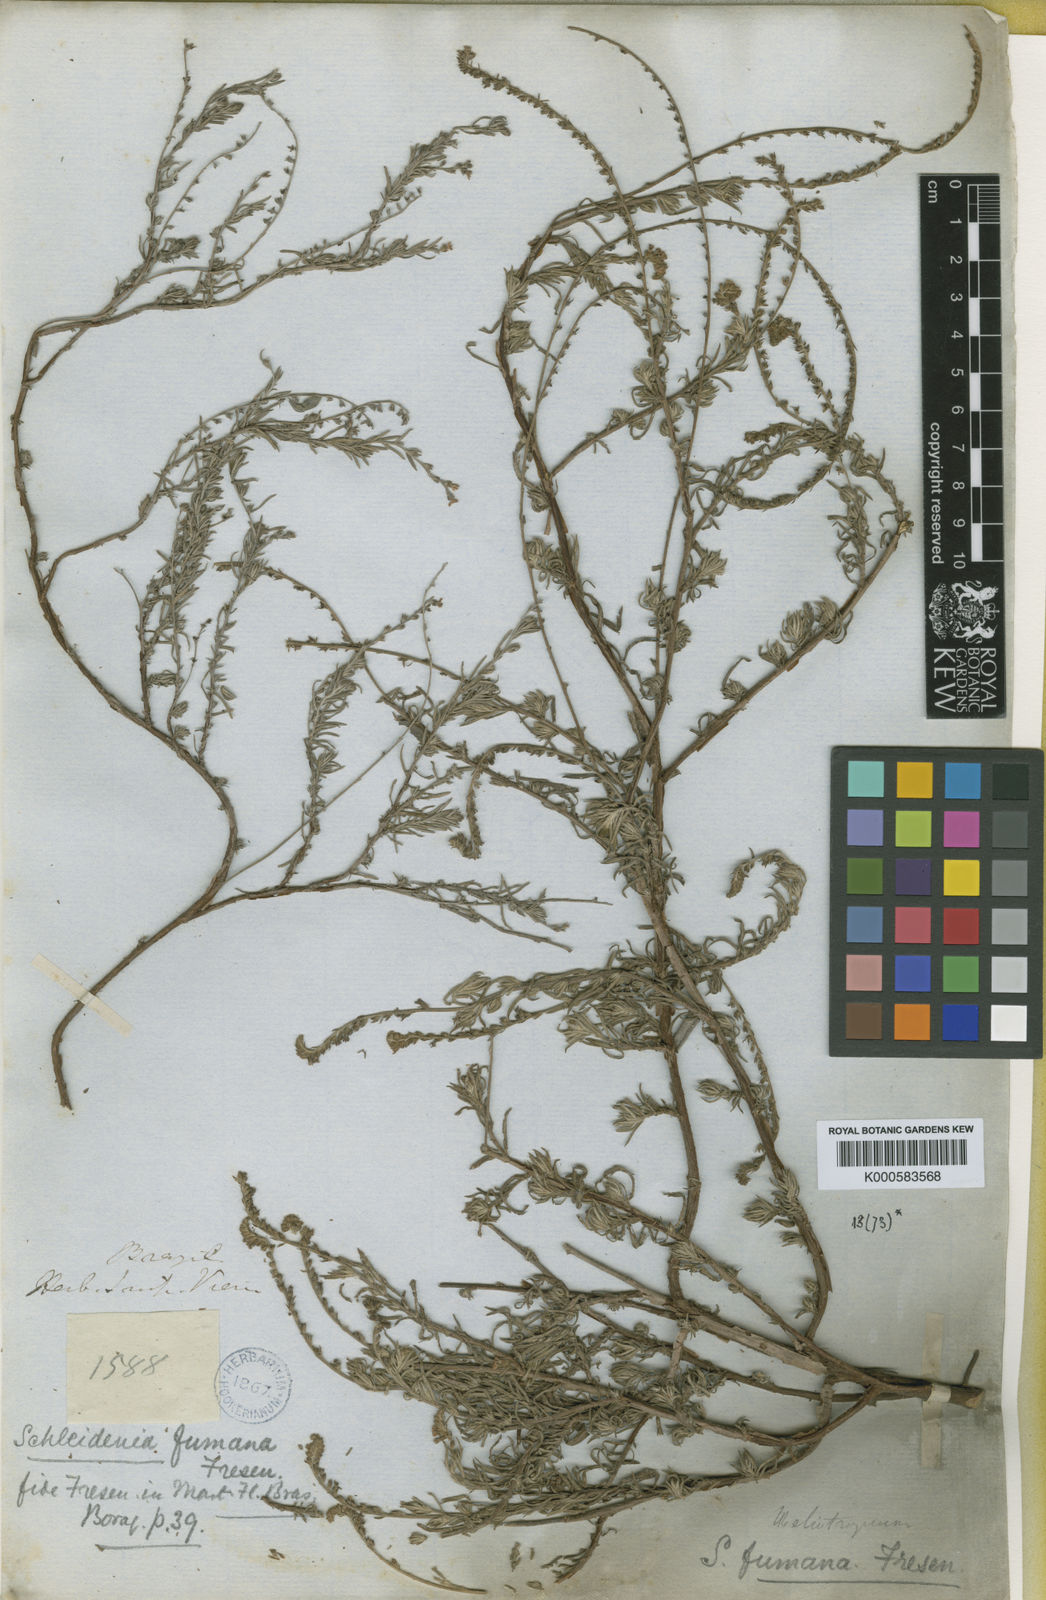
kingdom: Plantae
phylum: Tracheophyta
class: Magnoliopsida
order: Boraginales
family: Heliotropiaceae
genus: Heliotropium
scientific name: Heliotropium
